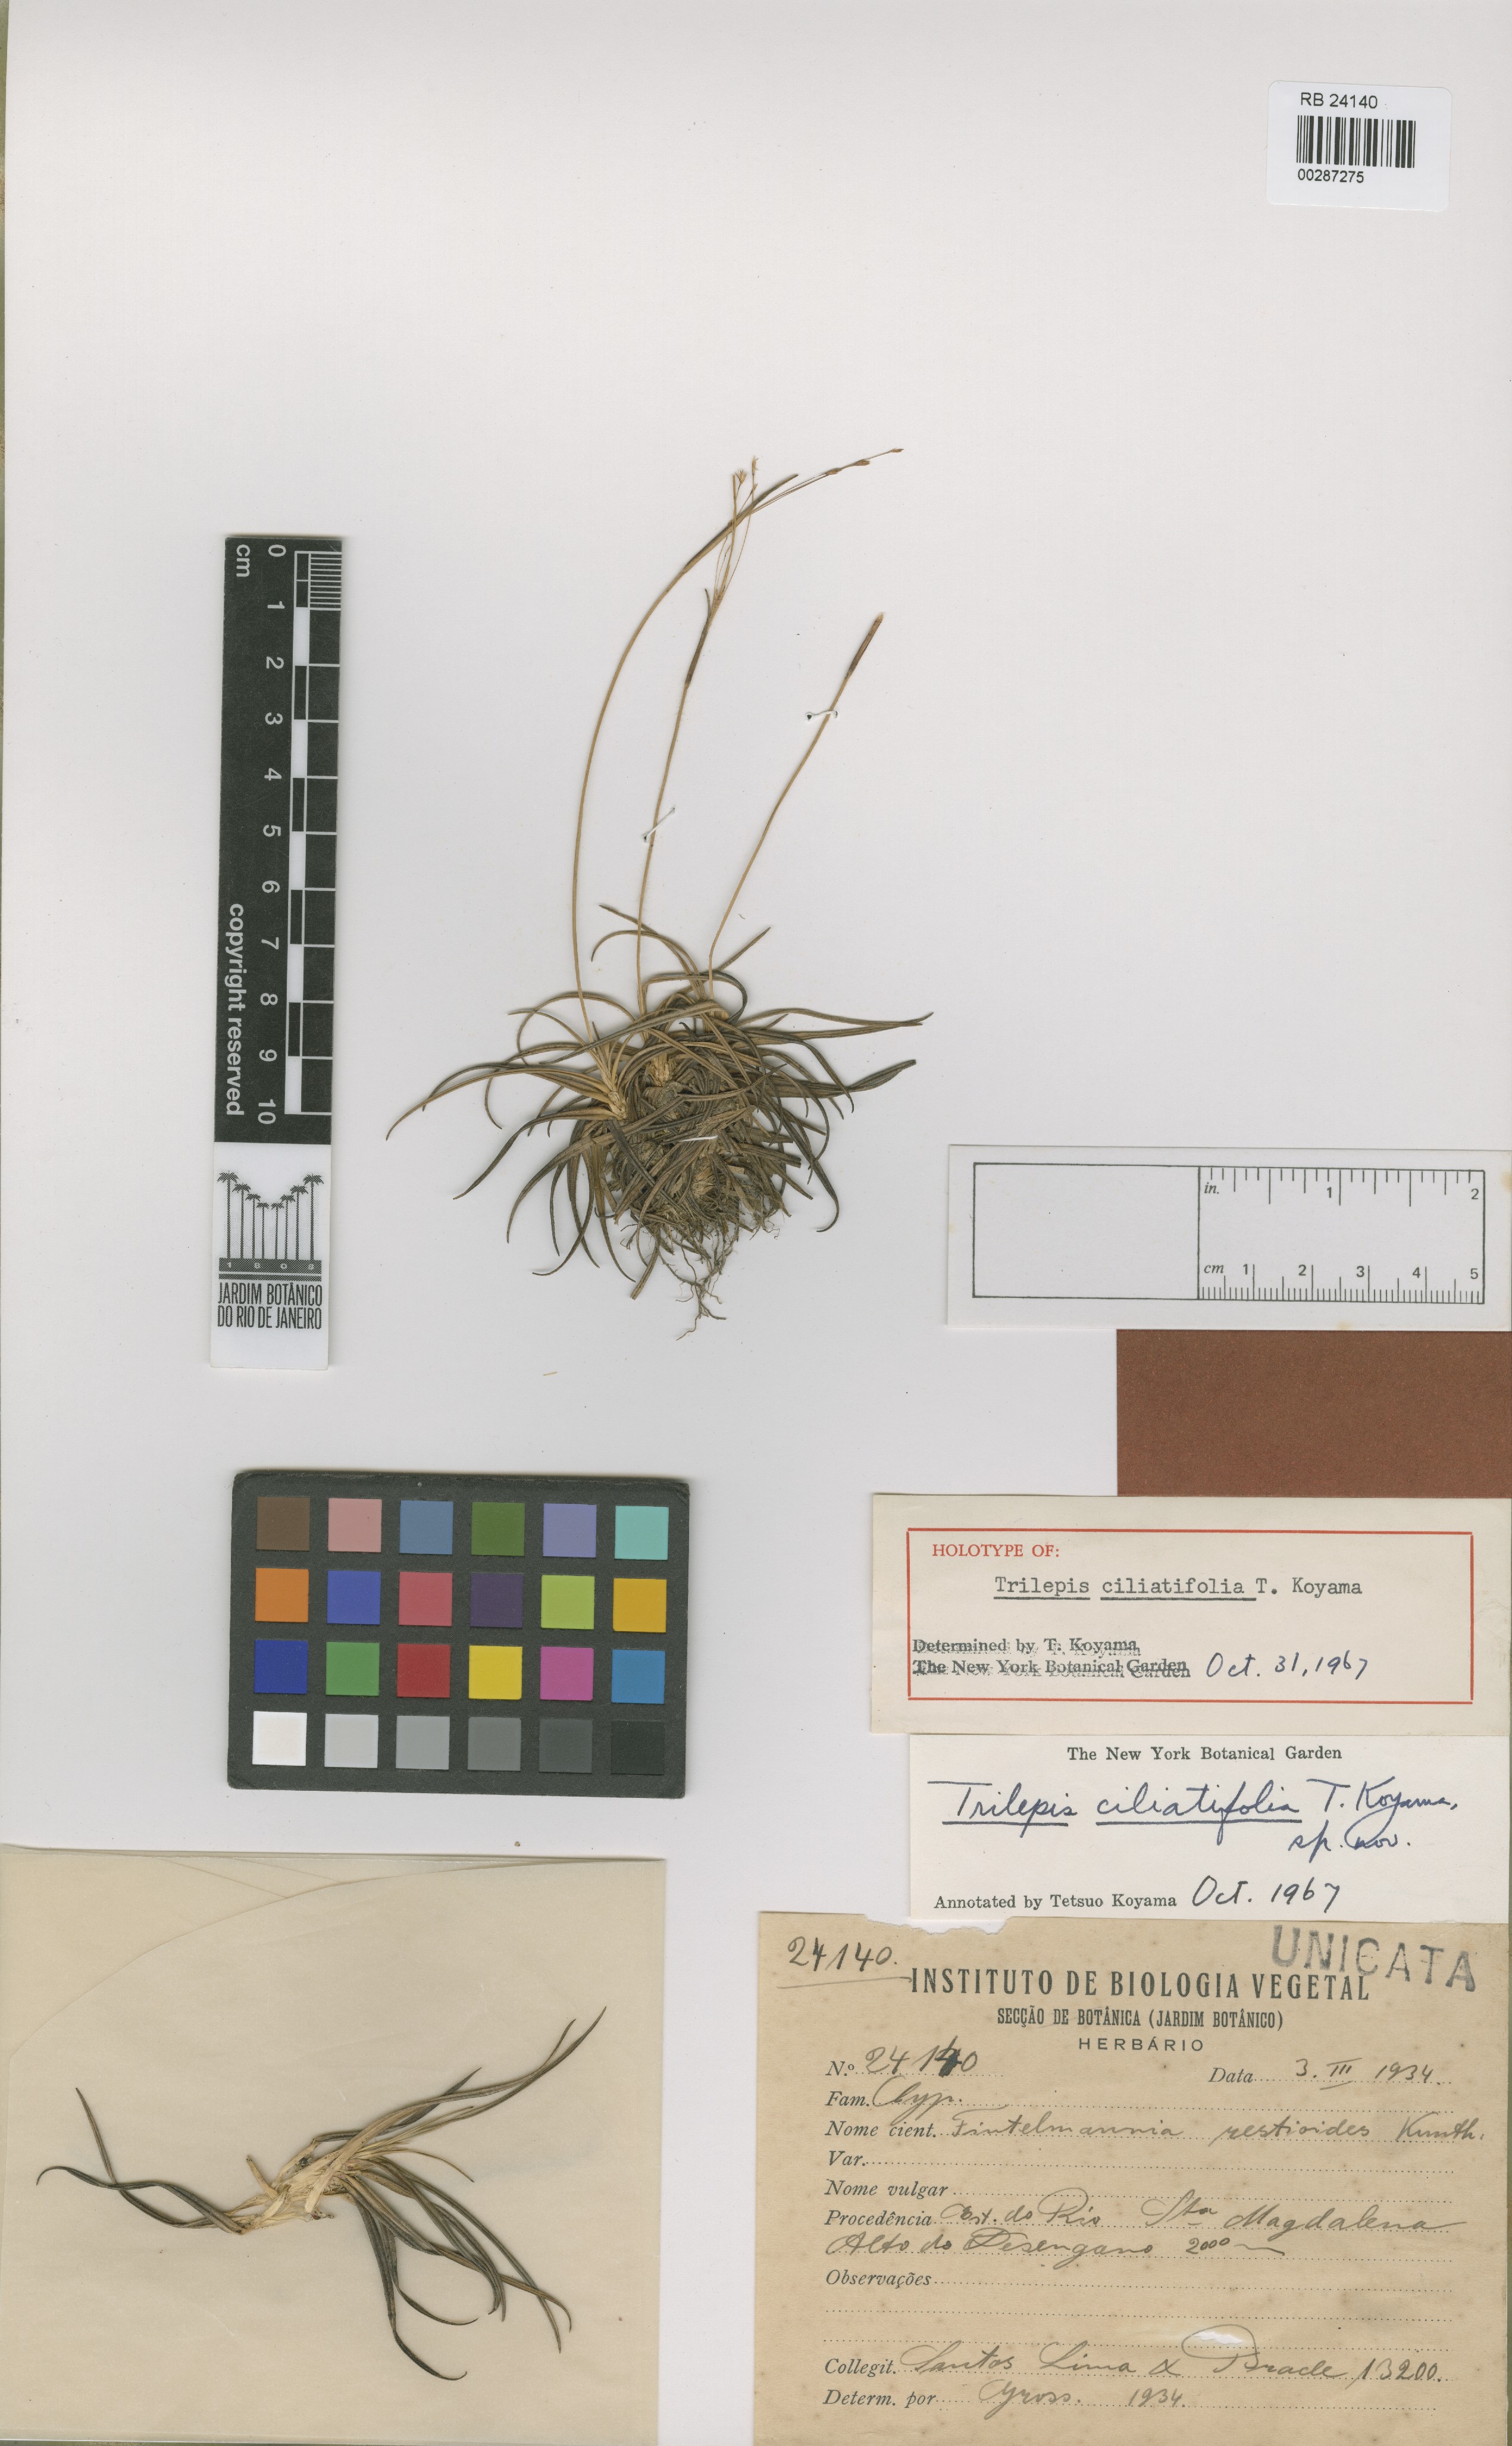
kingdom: Plantae
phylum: Tracheophyta
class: Liliopsida
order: Poales
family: Cyperaceae
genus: Trilepis
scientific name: Trilepis ciliatifolia
